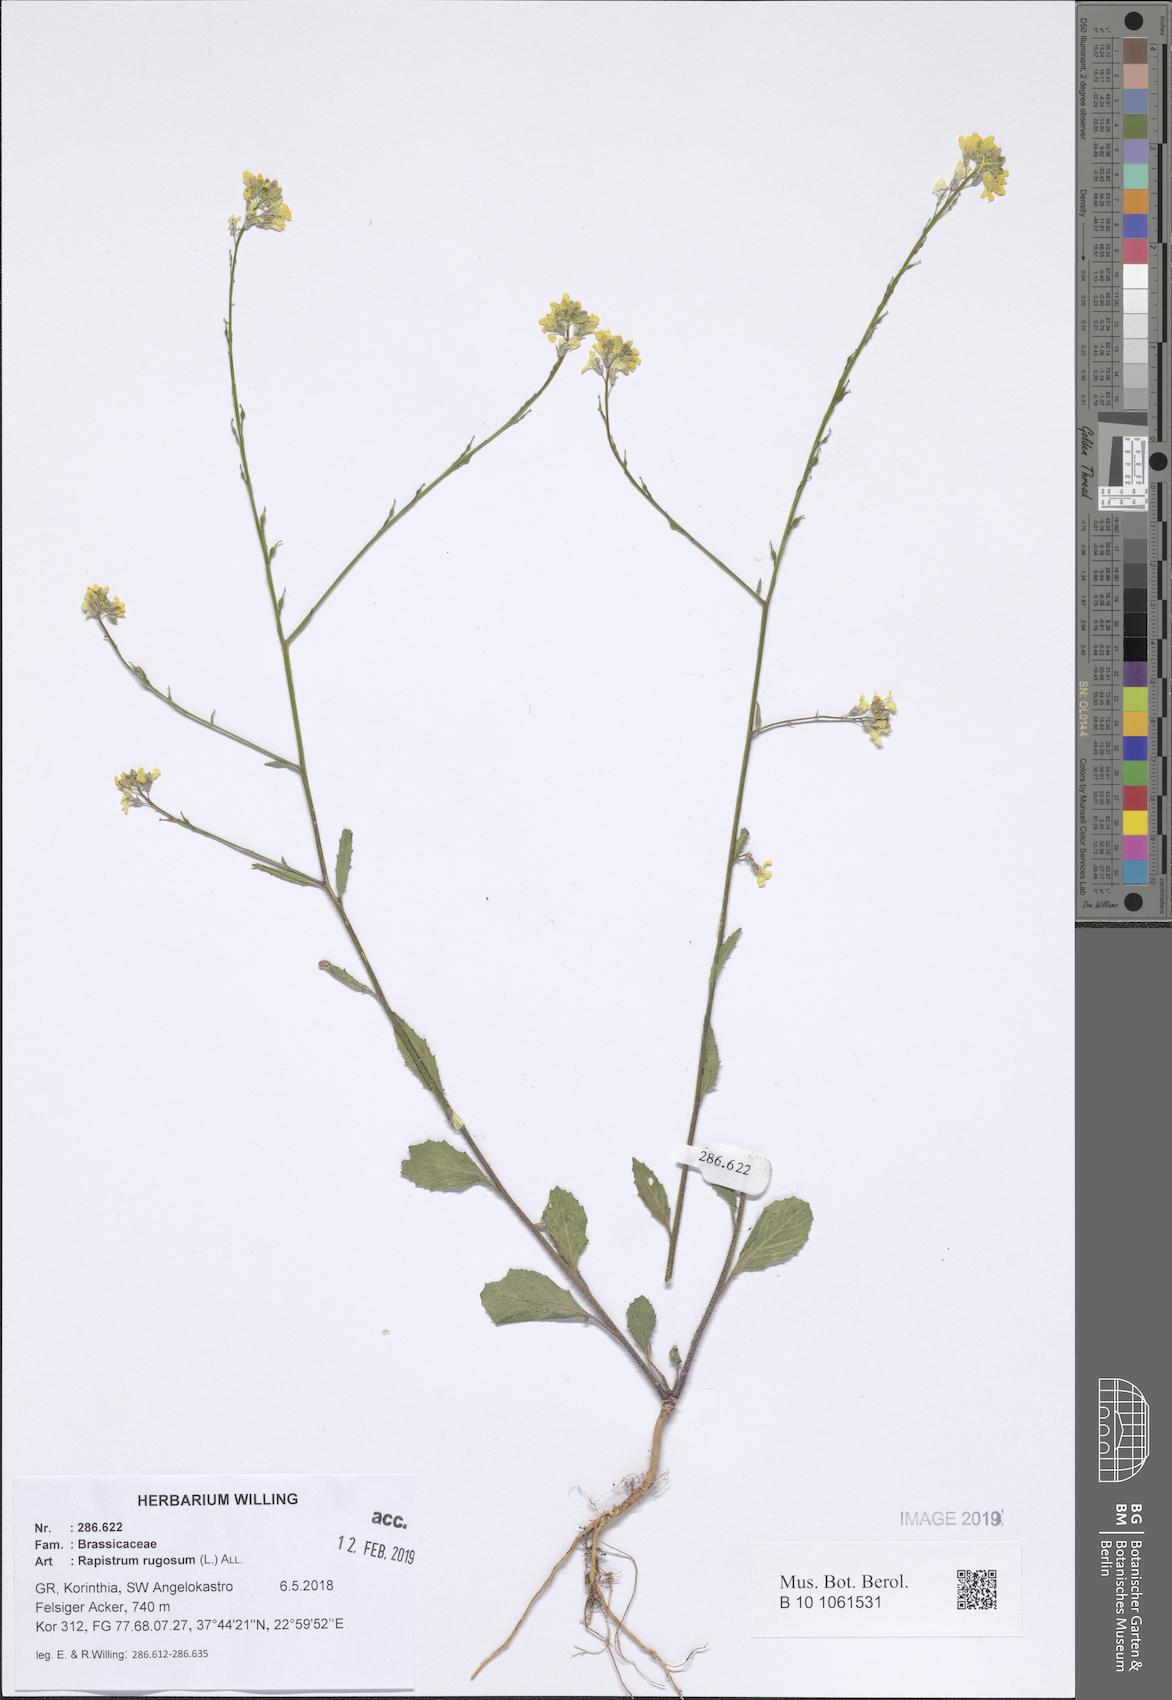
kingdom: Plantae
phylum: Tracheophyta
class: Magnoliopsida
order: Brassicales
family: Brassicaceae
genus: Rapistrum
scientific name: Rapistrum rugosum
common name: Annual bastardcabbage
